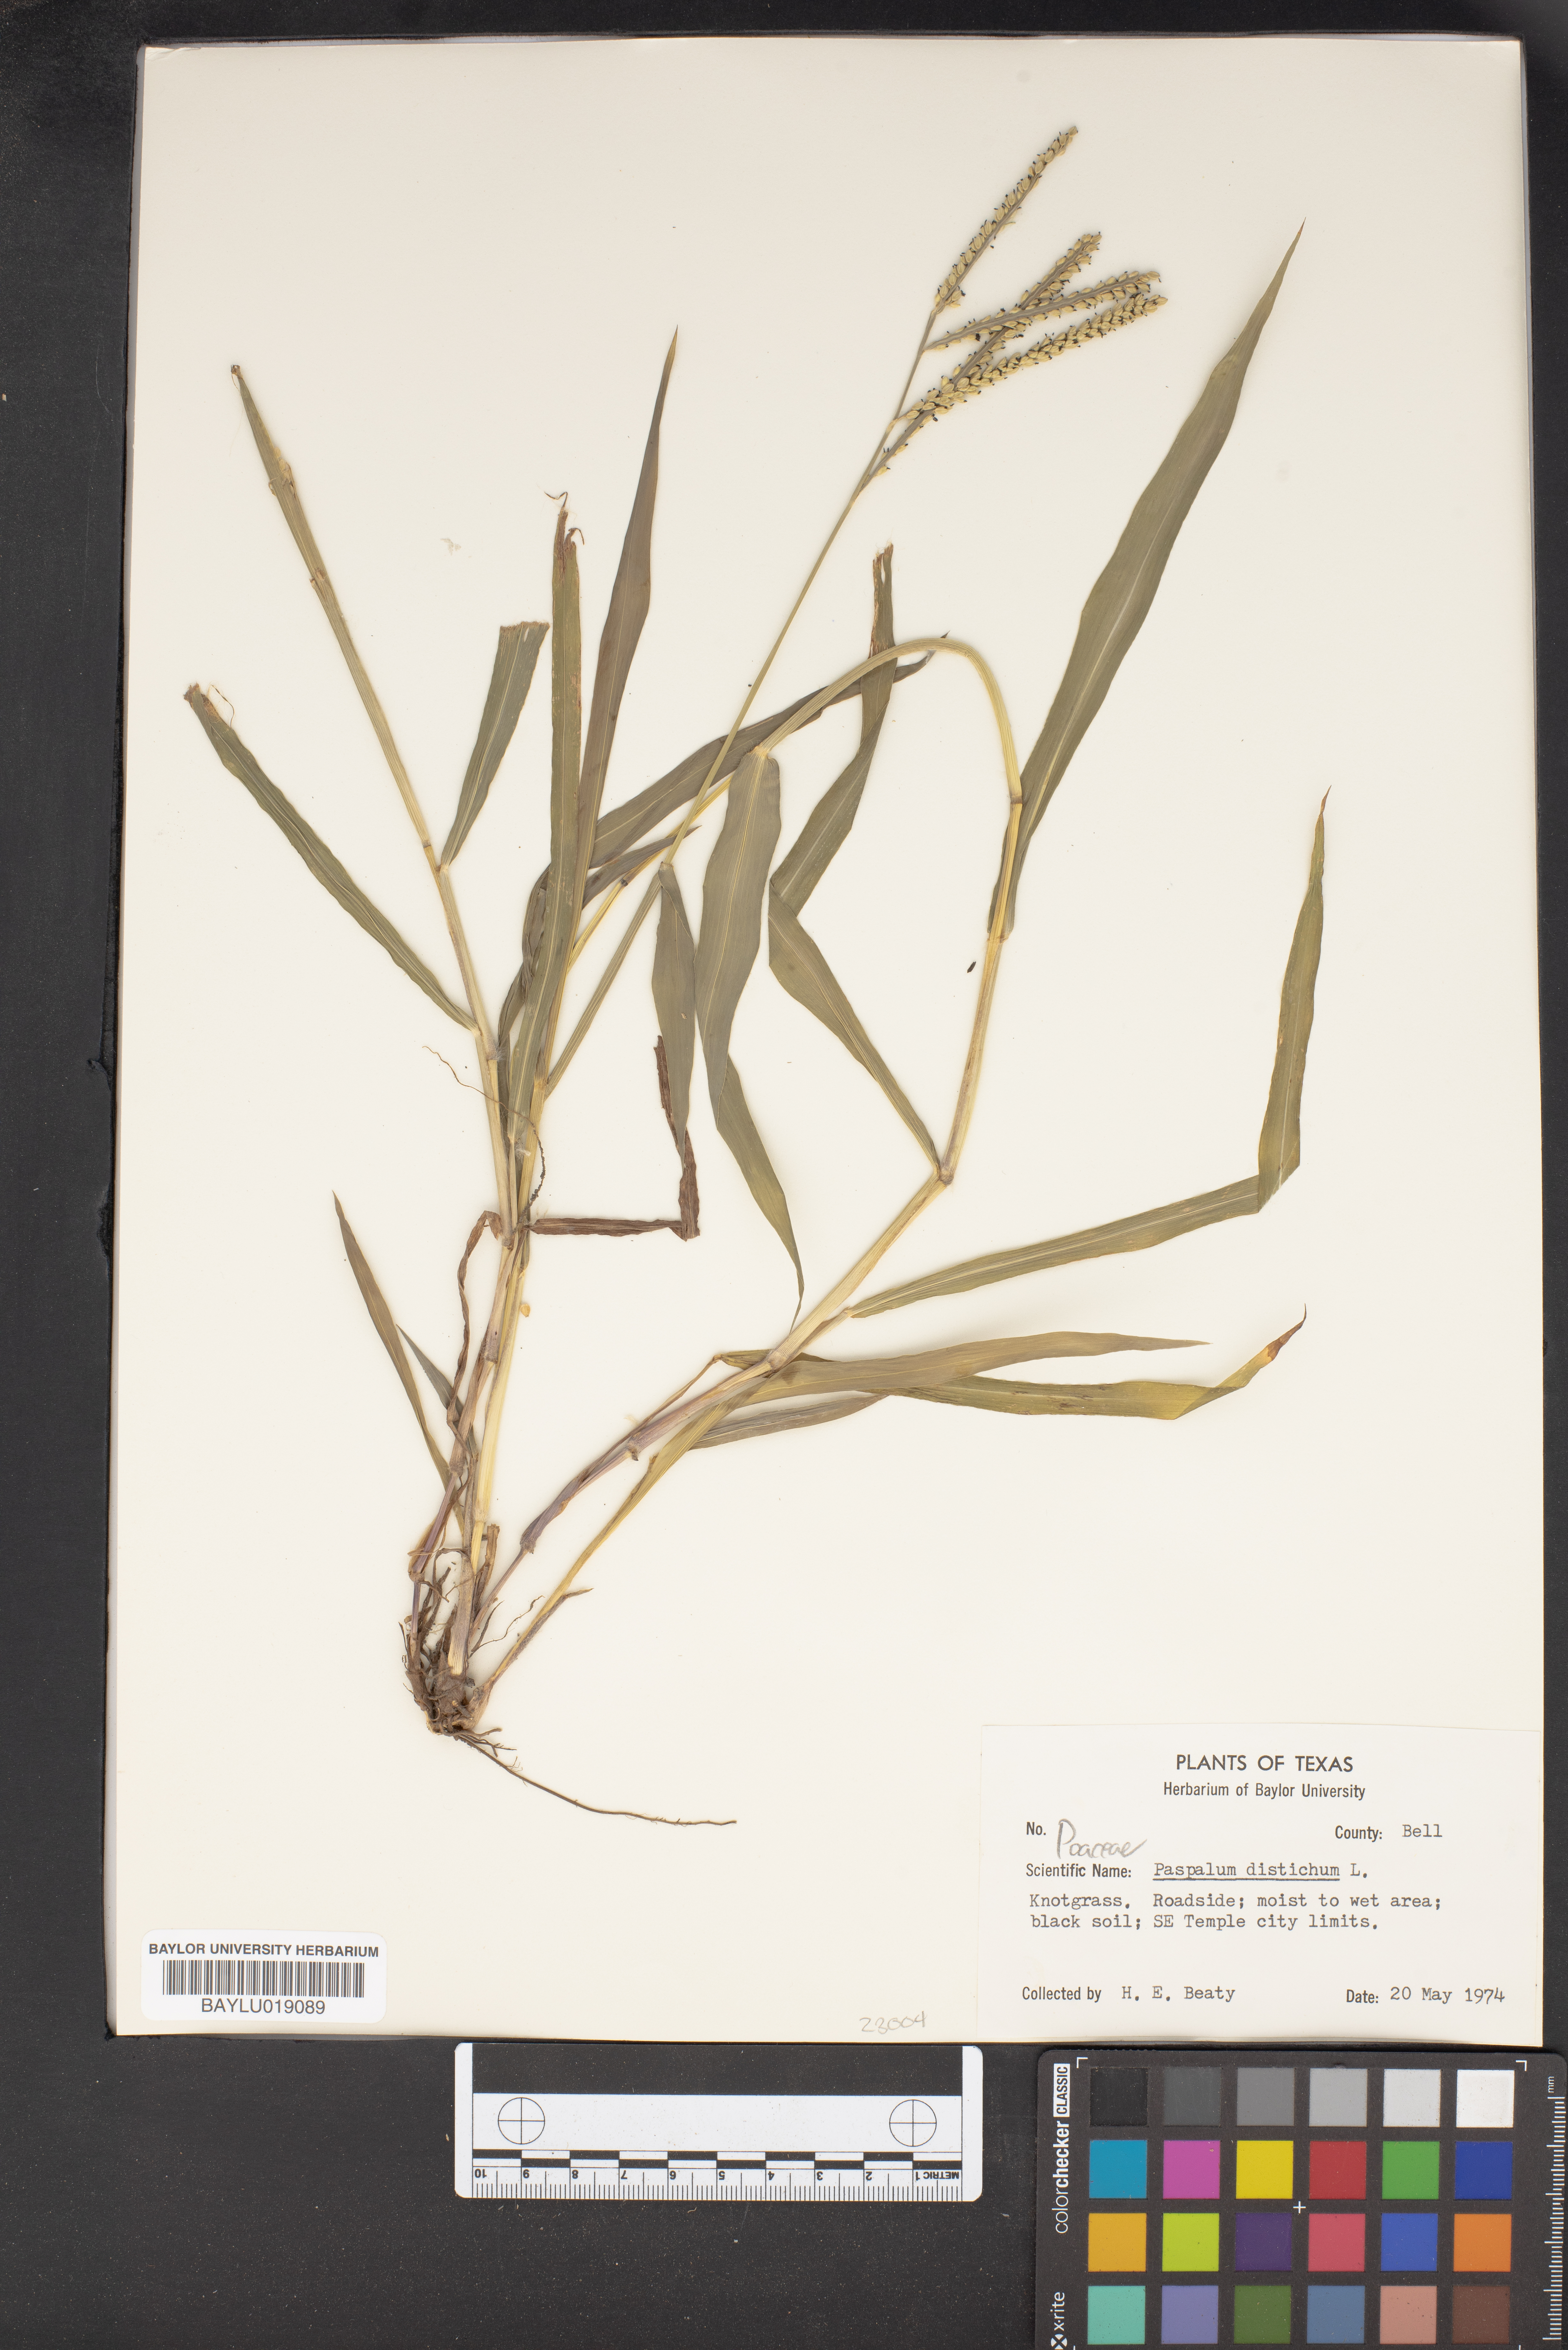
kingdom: Plantae
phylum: Tracheophyta
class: Liliopsida
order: Poales
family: Poaceae
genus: Paspalum
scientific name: Paspalum distichum
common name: Knotgrass
